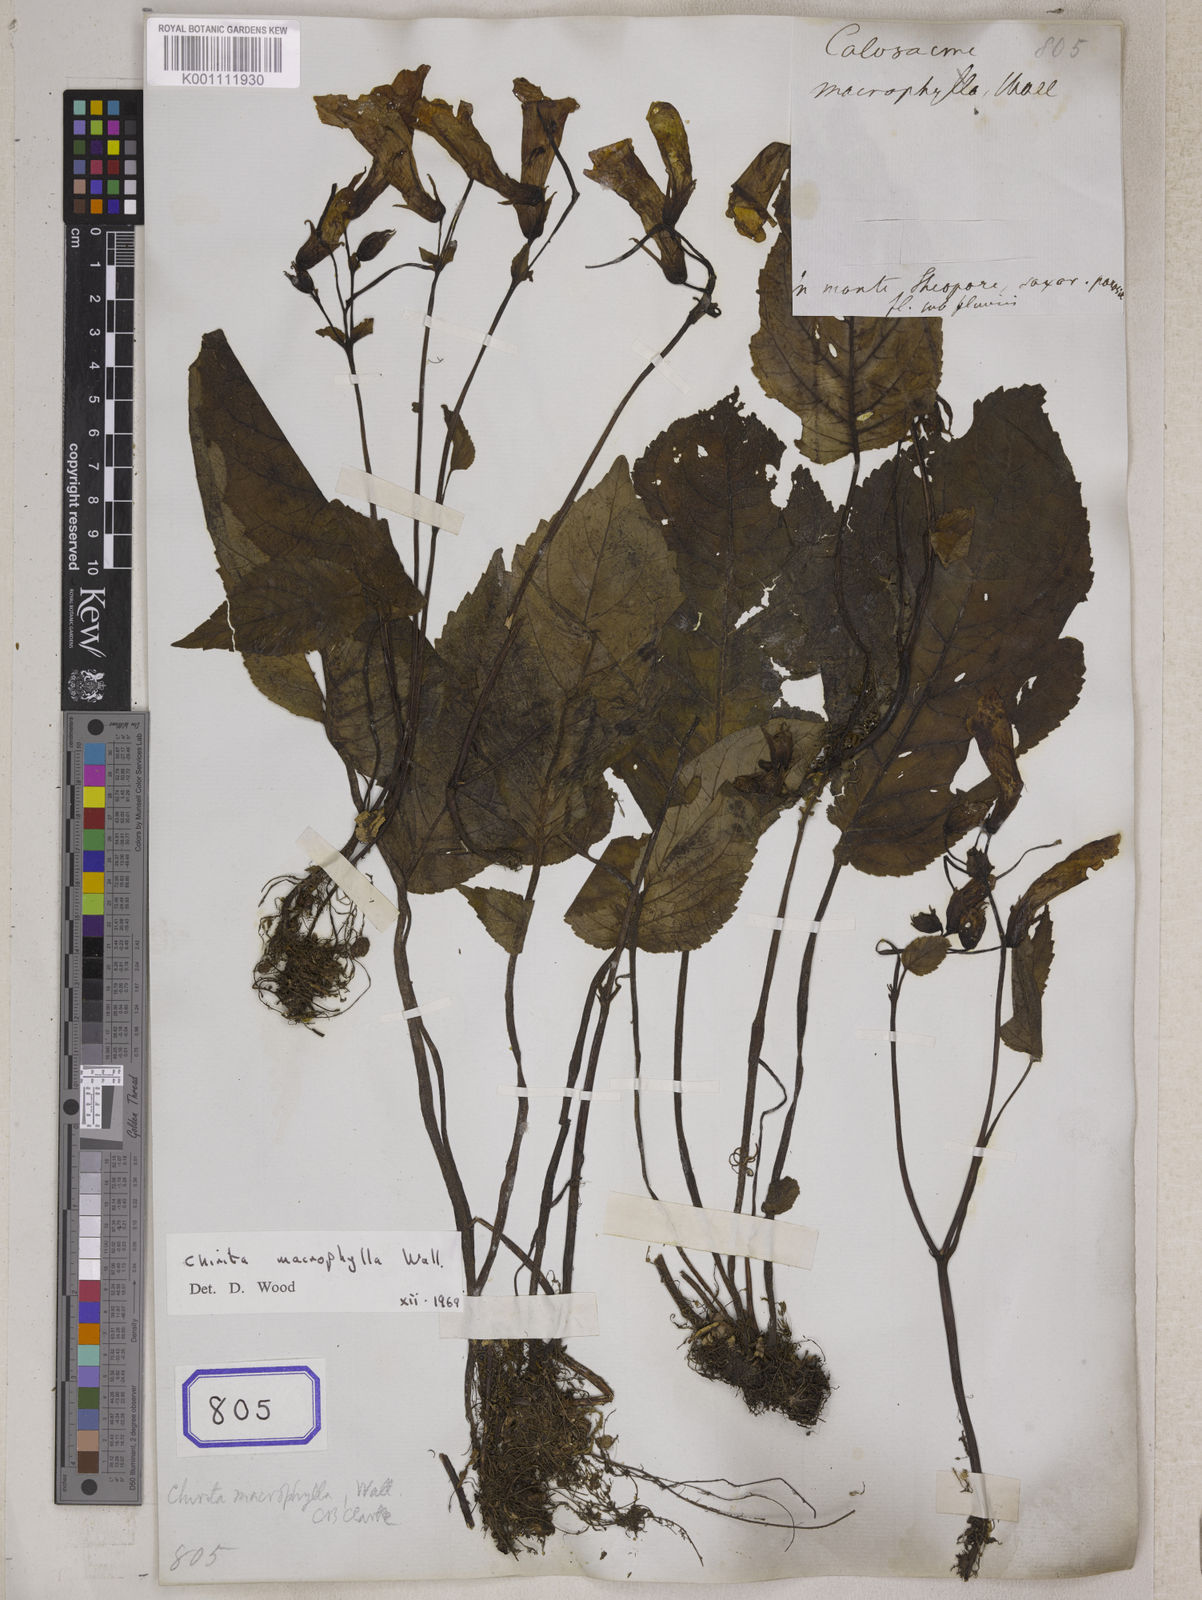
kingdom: Plantae
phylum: Tracheophyta
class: Magnoliopsida
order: Lamiales
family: Gesneriaceae
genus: Henckelia
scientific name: Henckelia grandifolia
